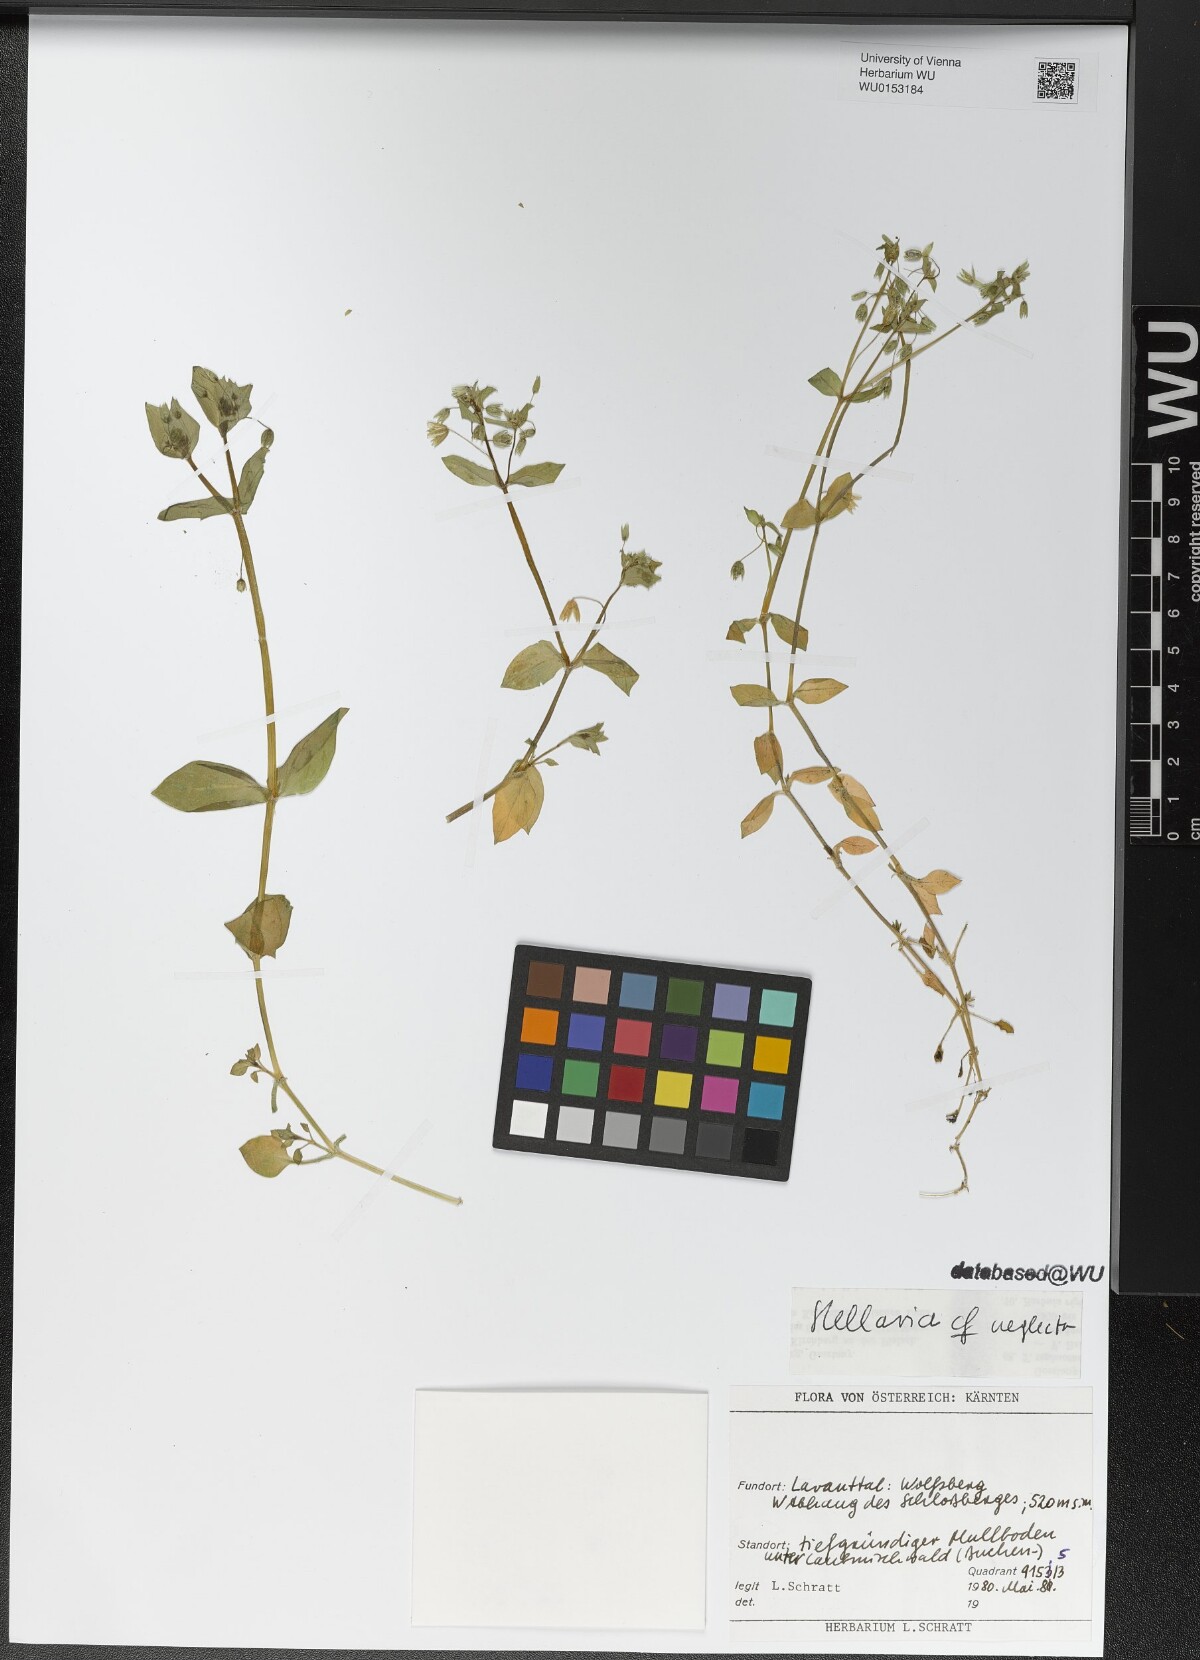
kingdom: Plantae
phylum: Tracheophyta
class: Magnoliopsida
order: Caryophyllales
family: Caryophyllaceae
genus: Stellaria
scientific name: Stellaria neglecta
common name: Greater chickweed
